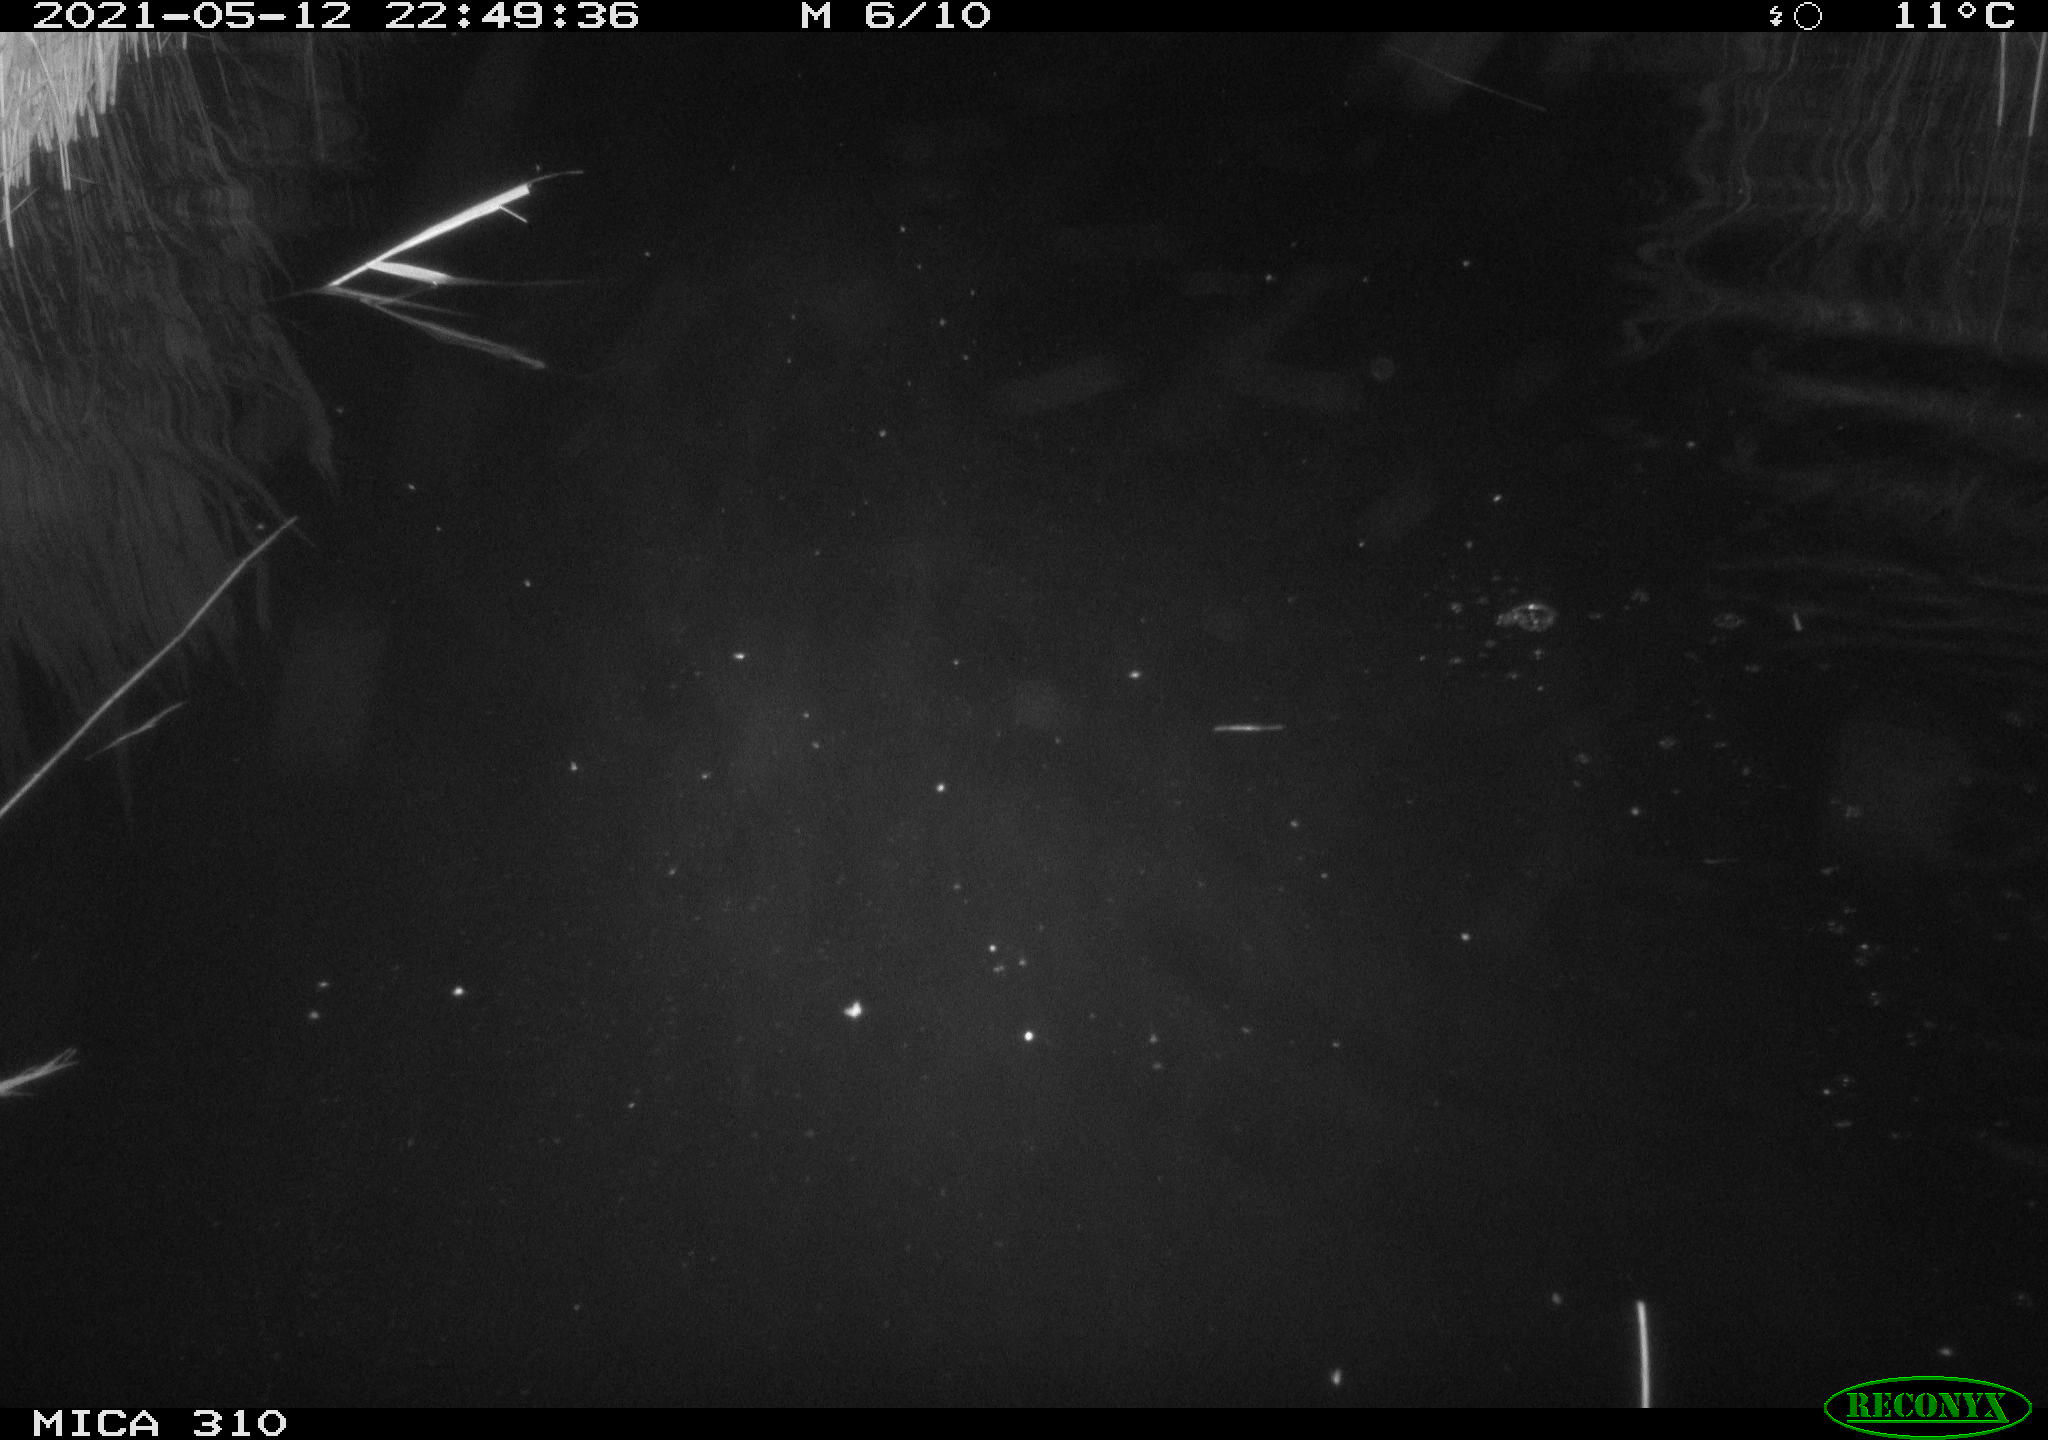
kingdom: Animalia
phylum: Chordata
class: Aves
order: Anseriformes
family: Anatidae
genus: Anas
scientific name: Anas platyrhynchos
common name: Mallard
